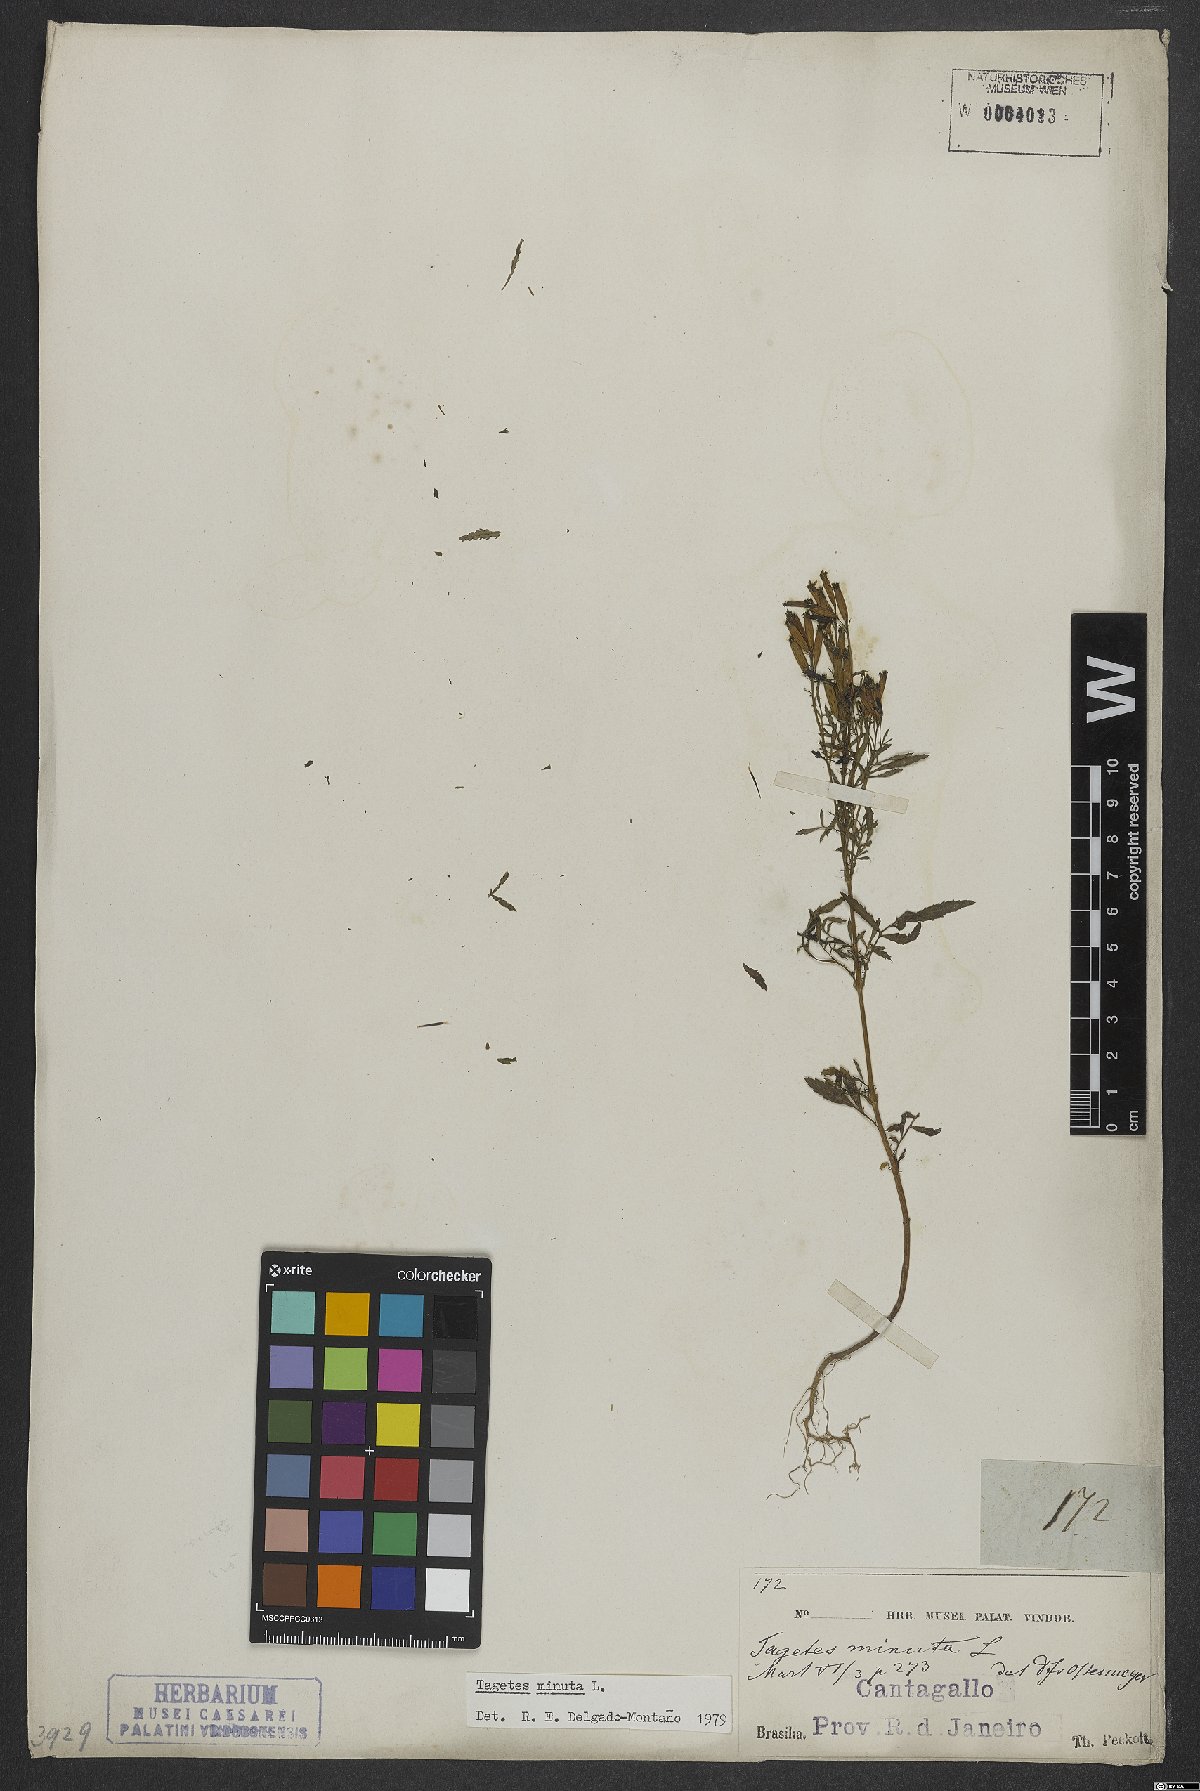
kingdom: Plantae
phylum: Tracheophyta
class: Magnoliopsida
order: Asterales
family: Asteraceae
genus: Tagetes
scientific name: Tagetes minuta
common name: Muster john henry
